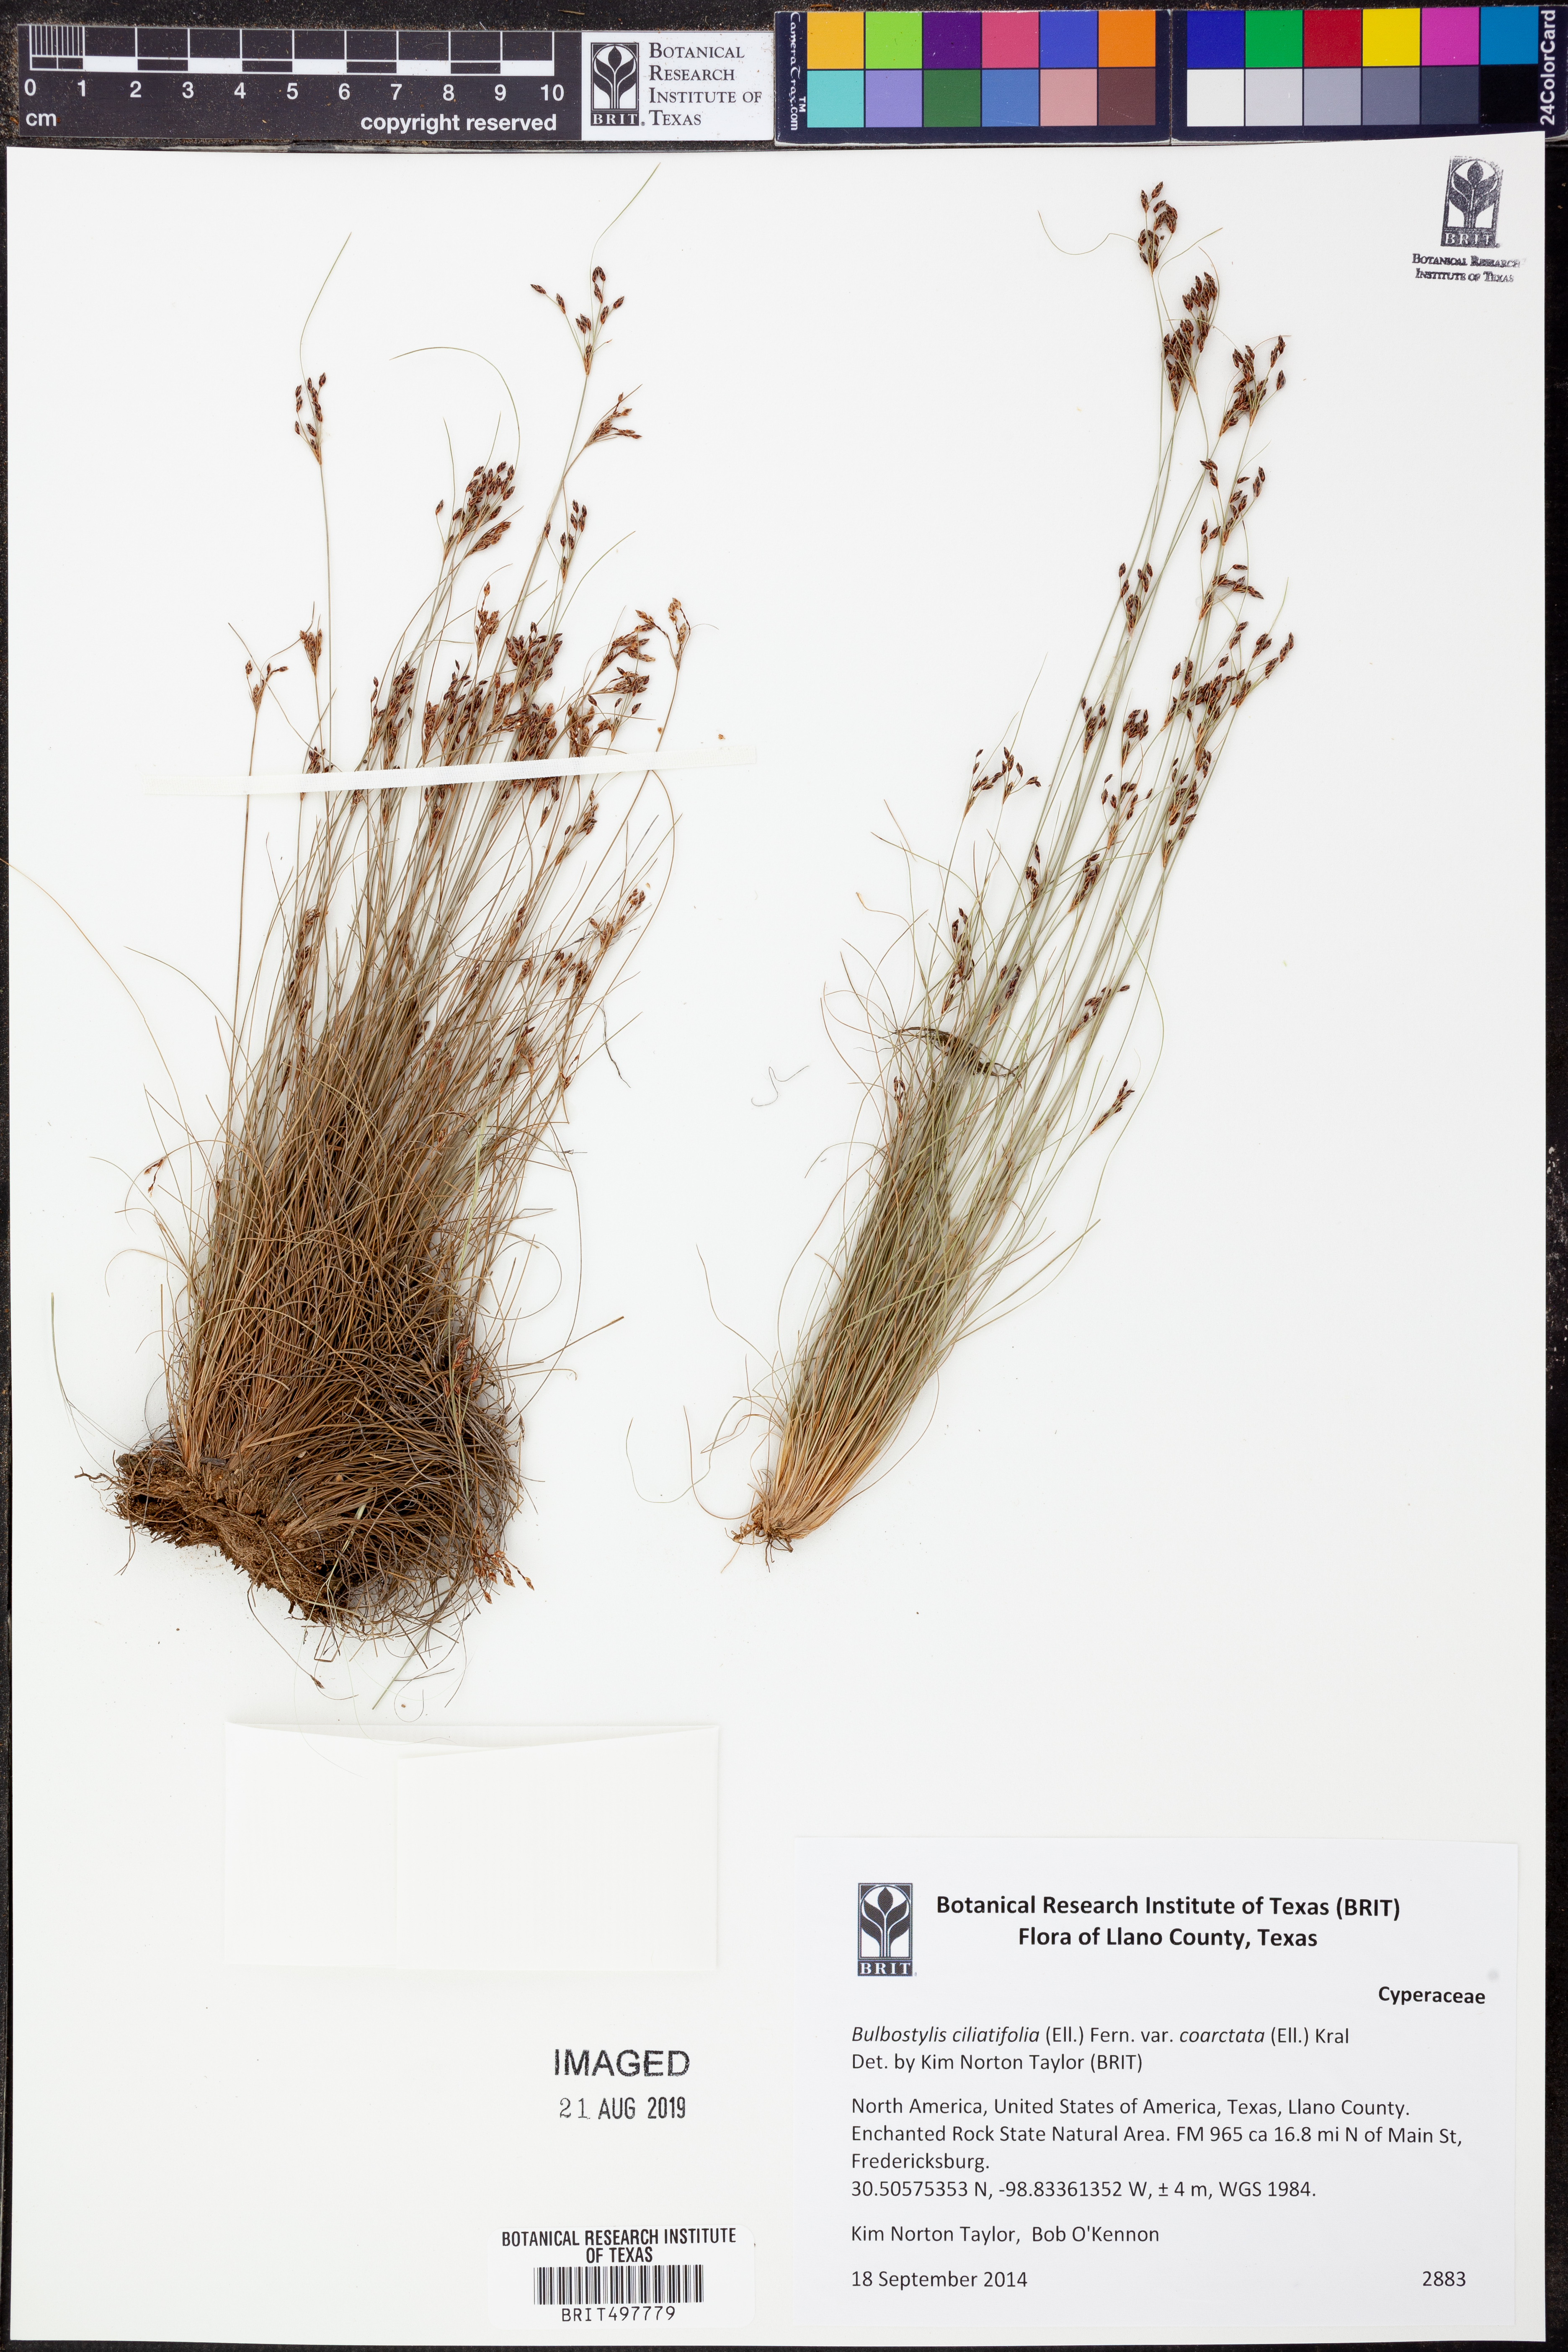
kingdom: Plantae
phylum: Tracheophyta
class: Liliopsida
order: Poales
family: Cyperaceae
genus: Bulbostylis
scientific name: Bulbostylis ciliatifolia
